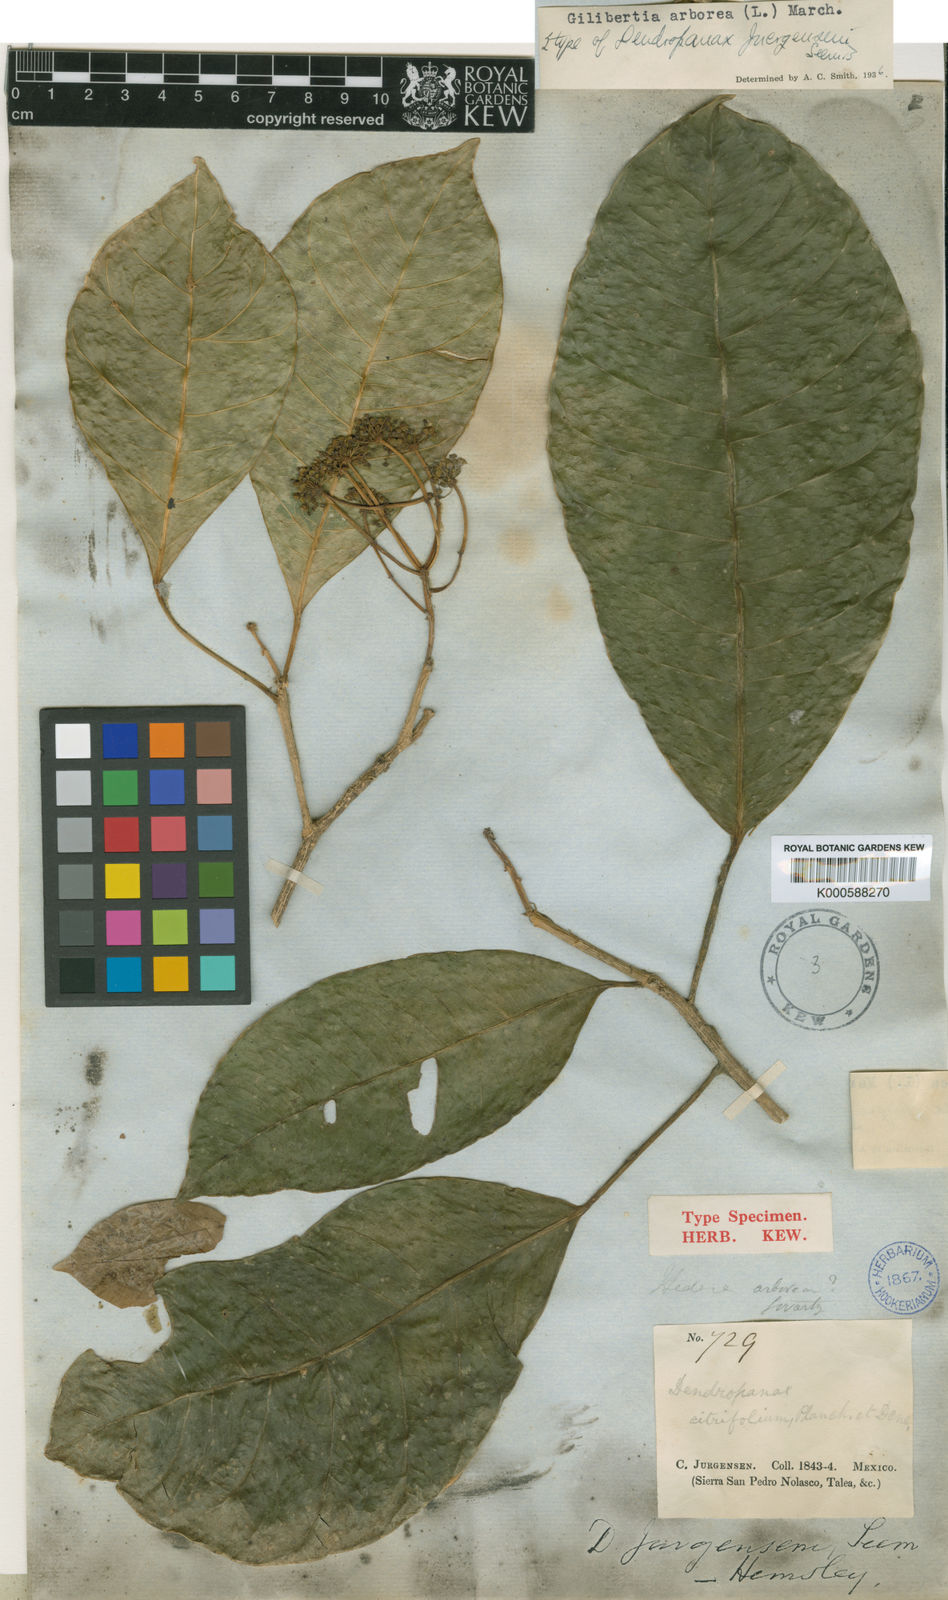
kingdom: Plantae
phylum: Tracheophyta
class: Magnoliopsida
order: Apiales
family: Araliaceae
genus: Dendropanax
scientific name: Dendropanax arboreus
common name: Potato-wood
